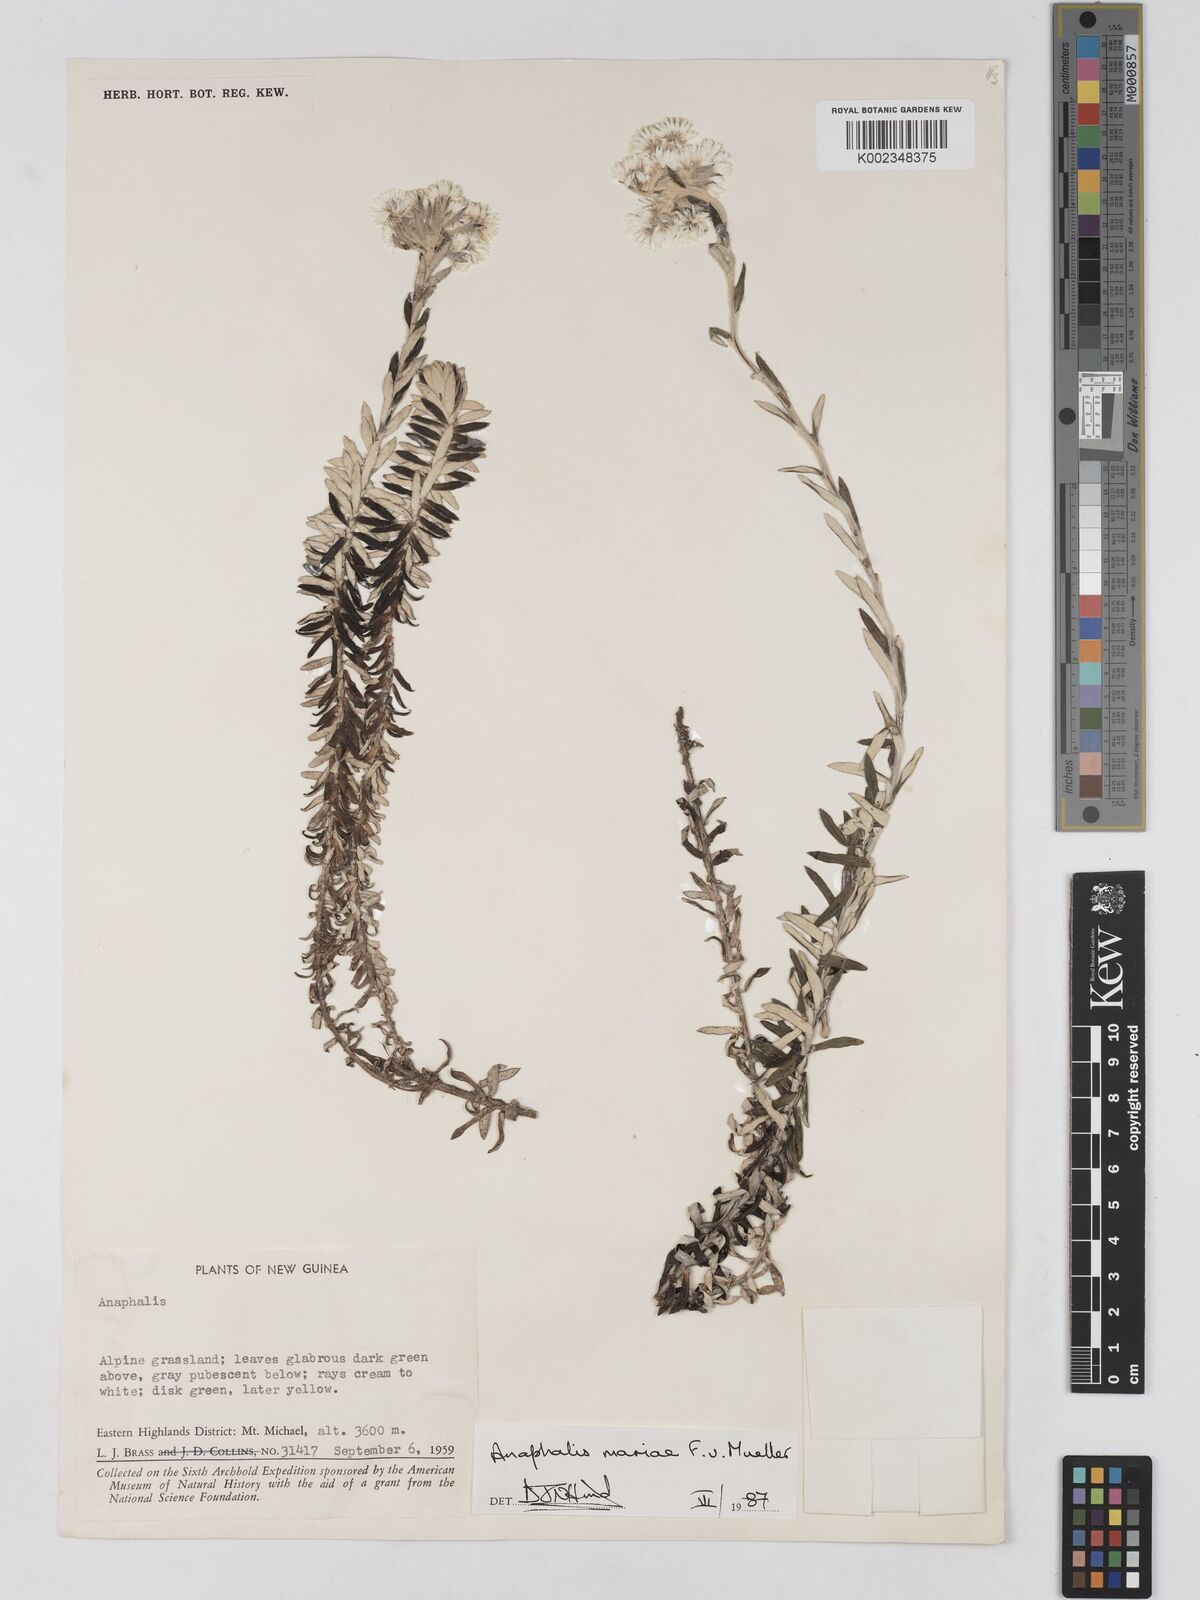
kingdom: Plantae
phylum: Tracheophyta
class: Magnoliopsida
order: Asterales
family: Asteraceae
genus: Anaphalioides
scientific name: Anaphalioides mariae
